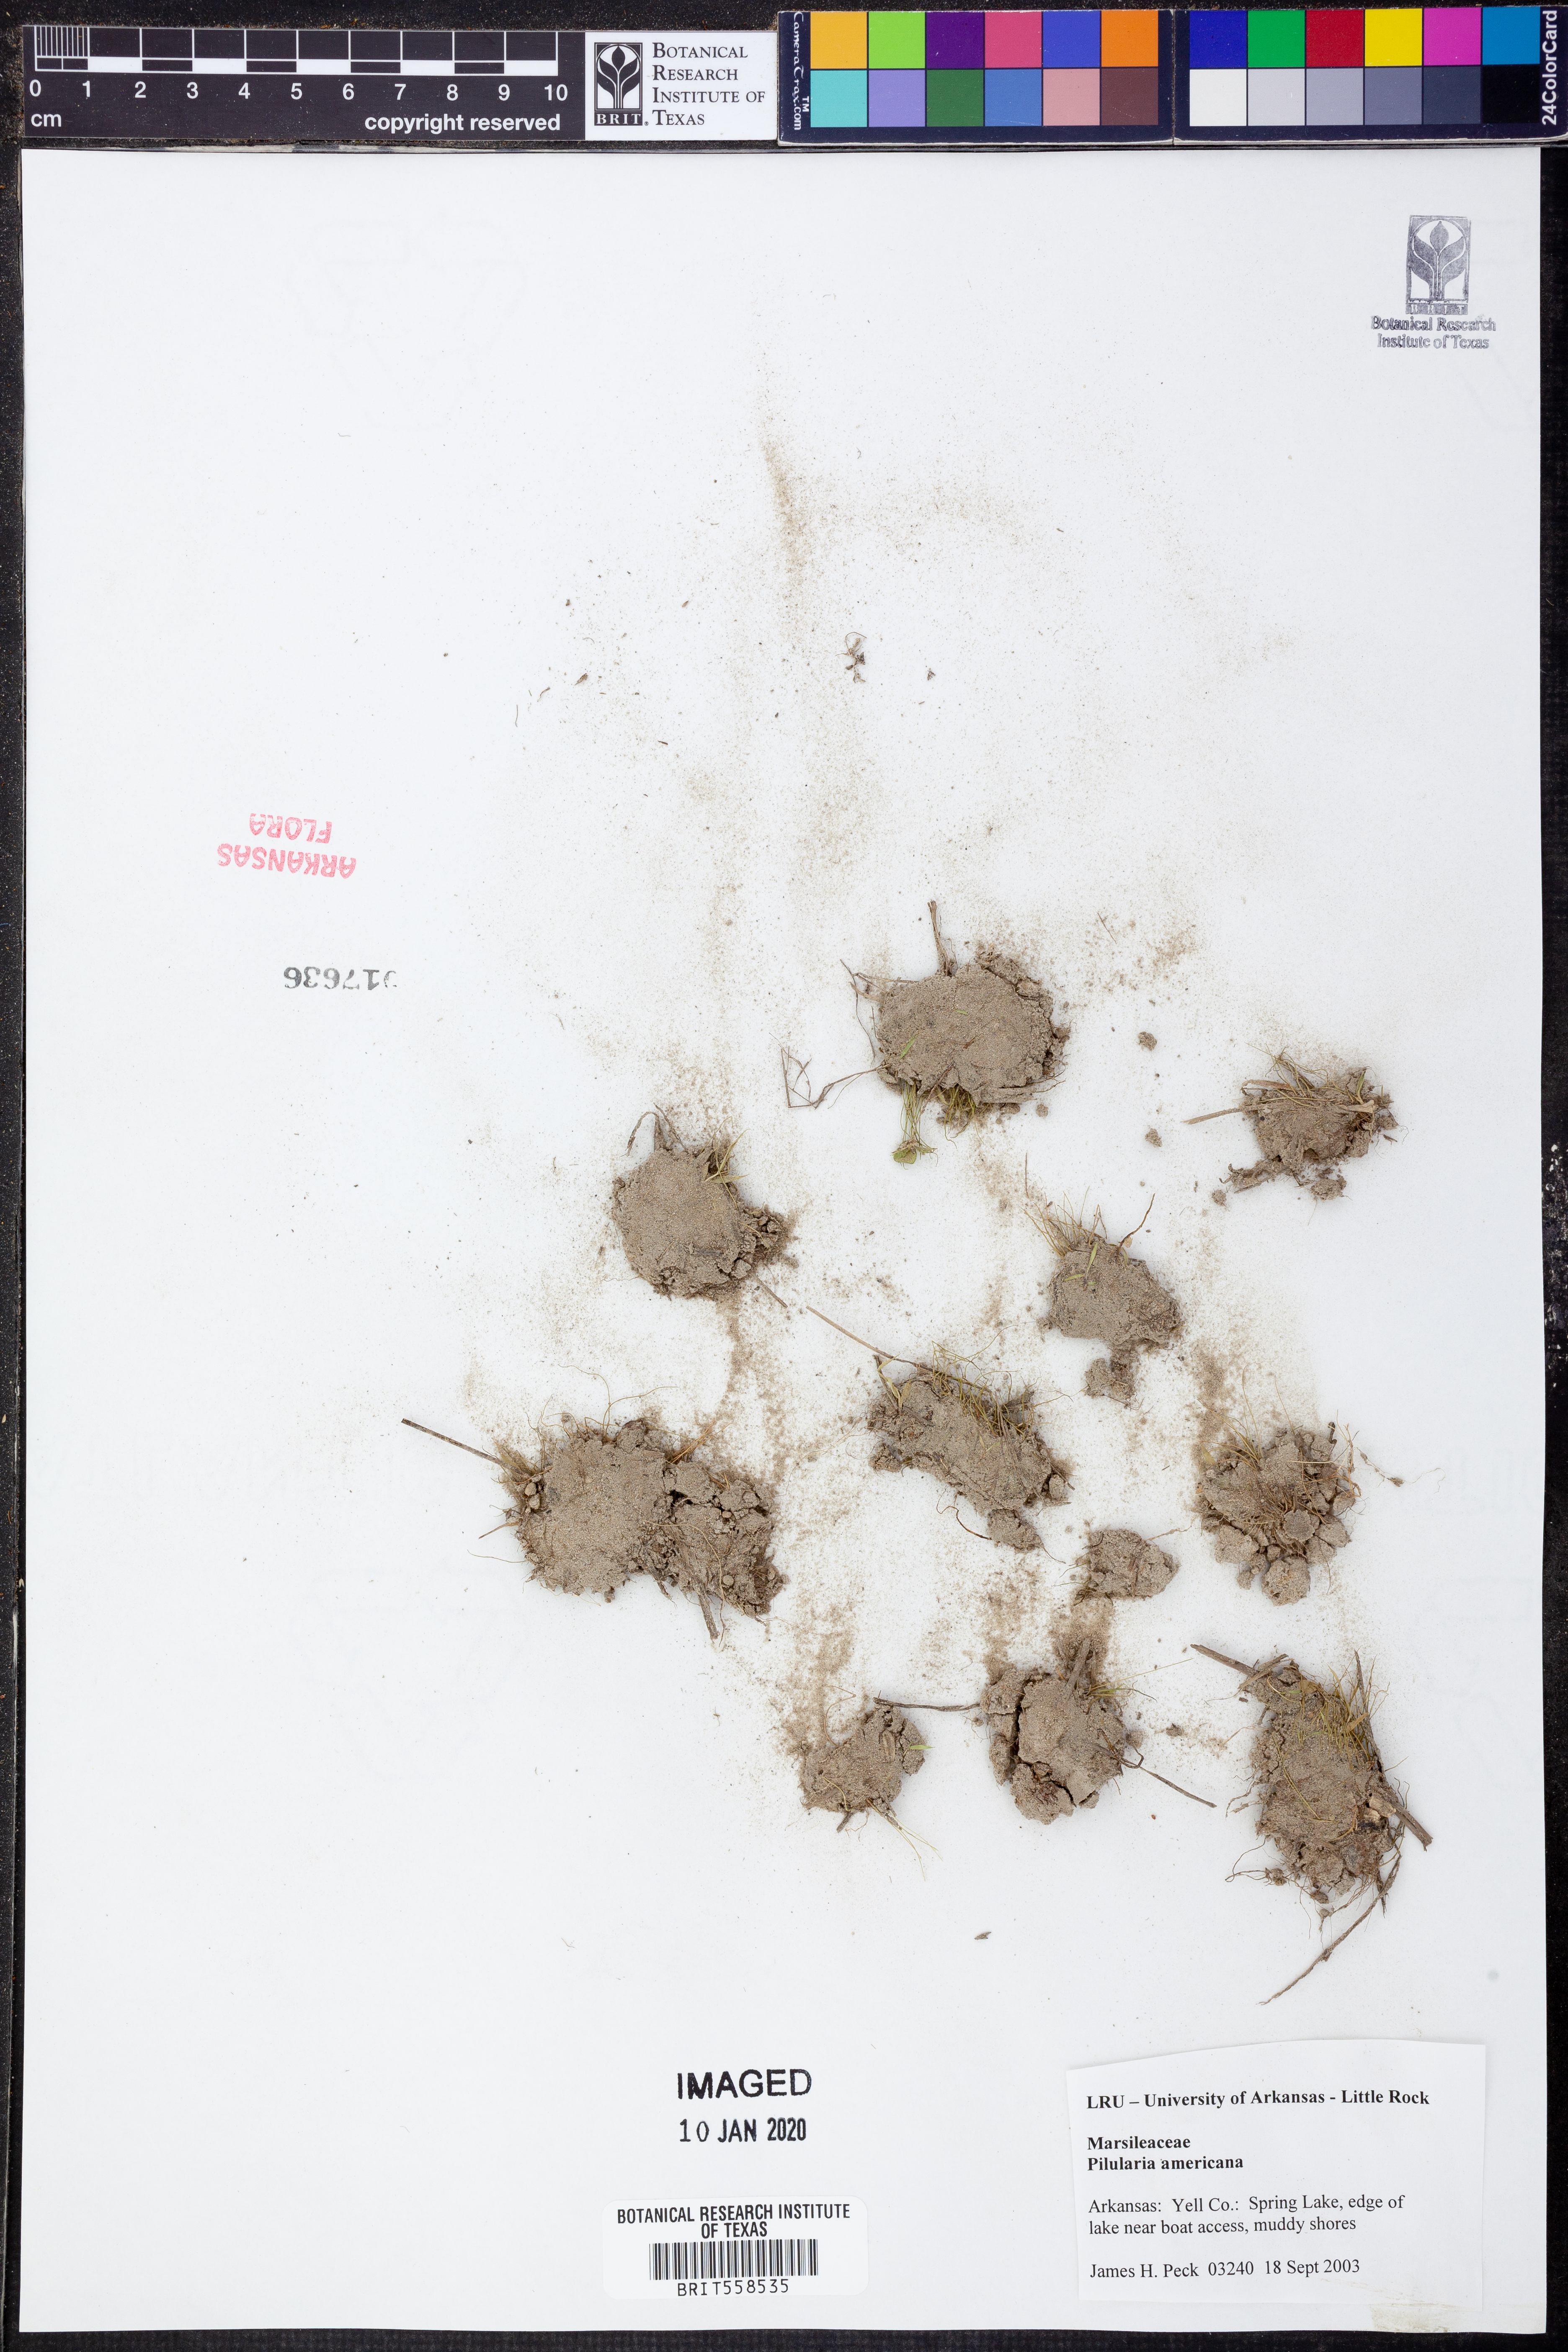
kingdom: Plantae
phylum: Tracheophyta
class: Polypodiopsida
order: Salviniales
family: Marsileaceae
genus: Pilularia
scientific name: Pilularia americana
